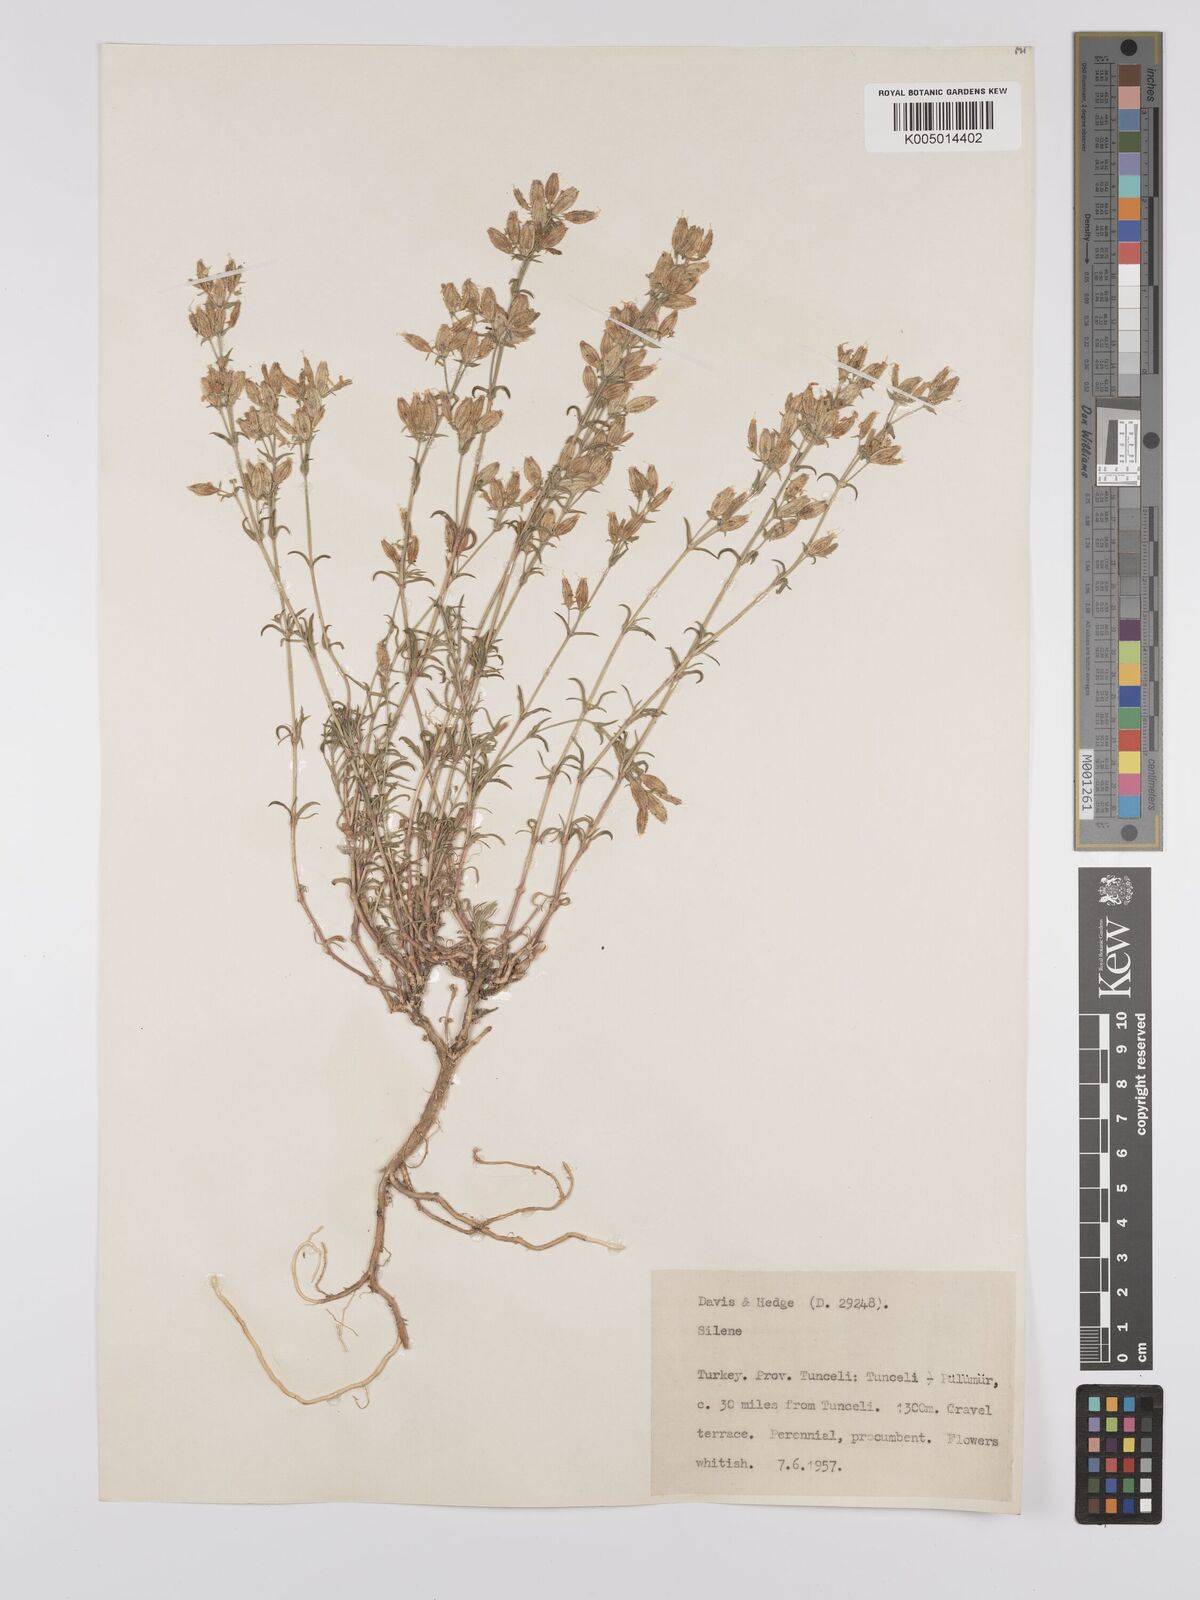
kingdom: Plantae
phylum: Tracheophyta
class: Magnoliopsida
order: Caryophyllales
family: Caryophyllaceae
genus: Silene
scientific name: Silene
